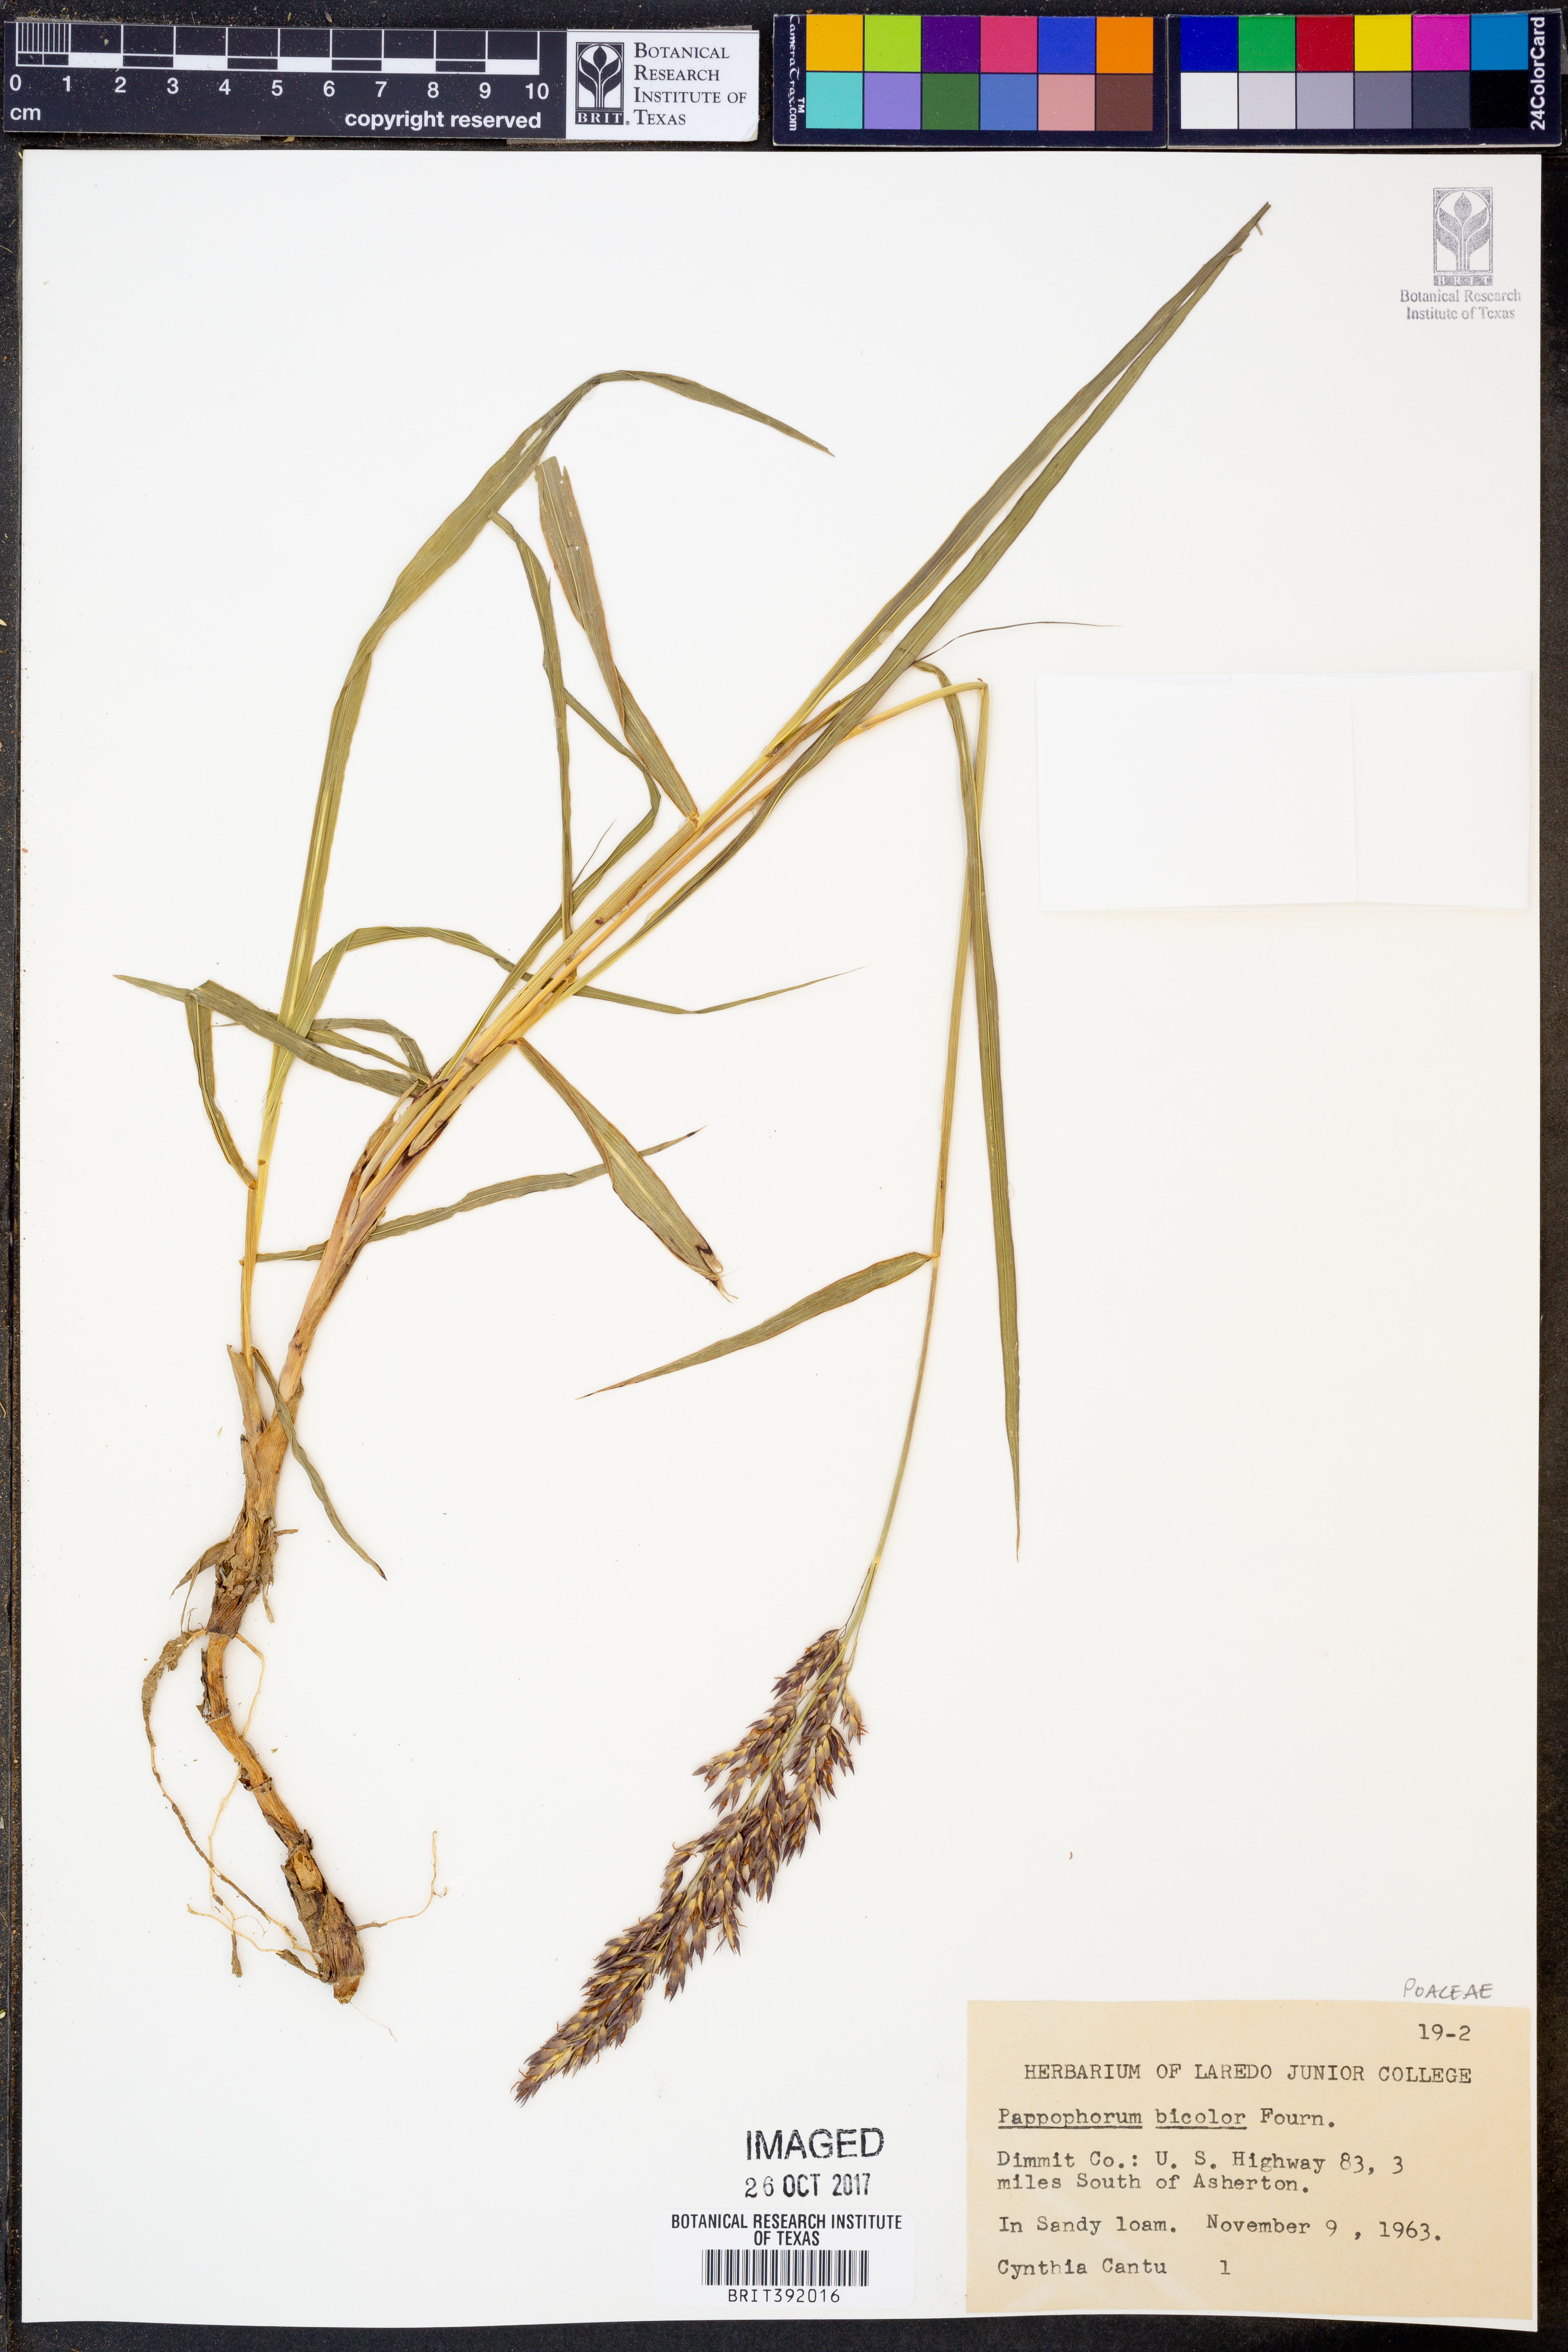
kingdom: Plantae
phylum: Tracheophyta
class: Liliopsida
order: Poales
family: Poaceae
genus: Pappophorum
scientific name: Pappophorum bicolor
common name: Pink pappus grass
